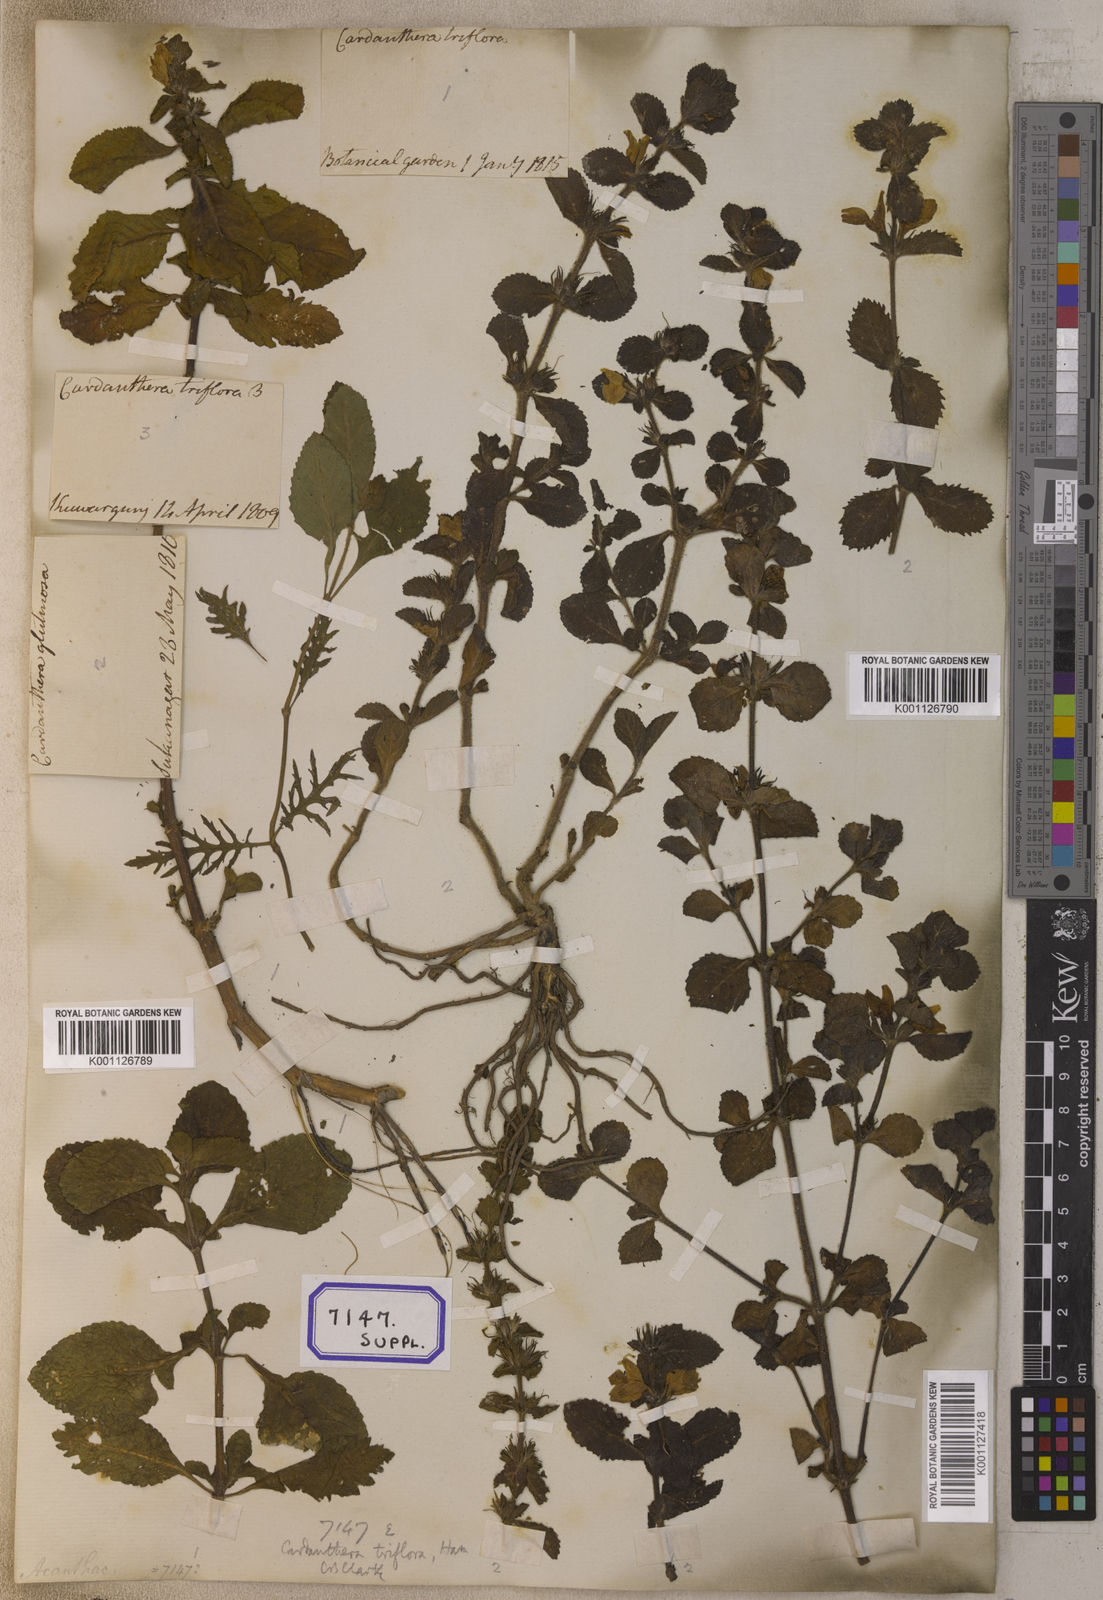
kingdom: Plantae
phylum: Tracheophyta
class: Magnoliopsida
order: Lamiales
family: Plantaginaceae
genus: Adenosma
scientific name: Adenosma
